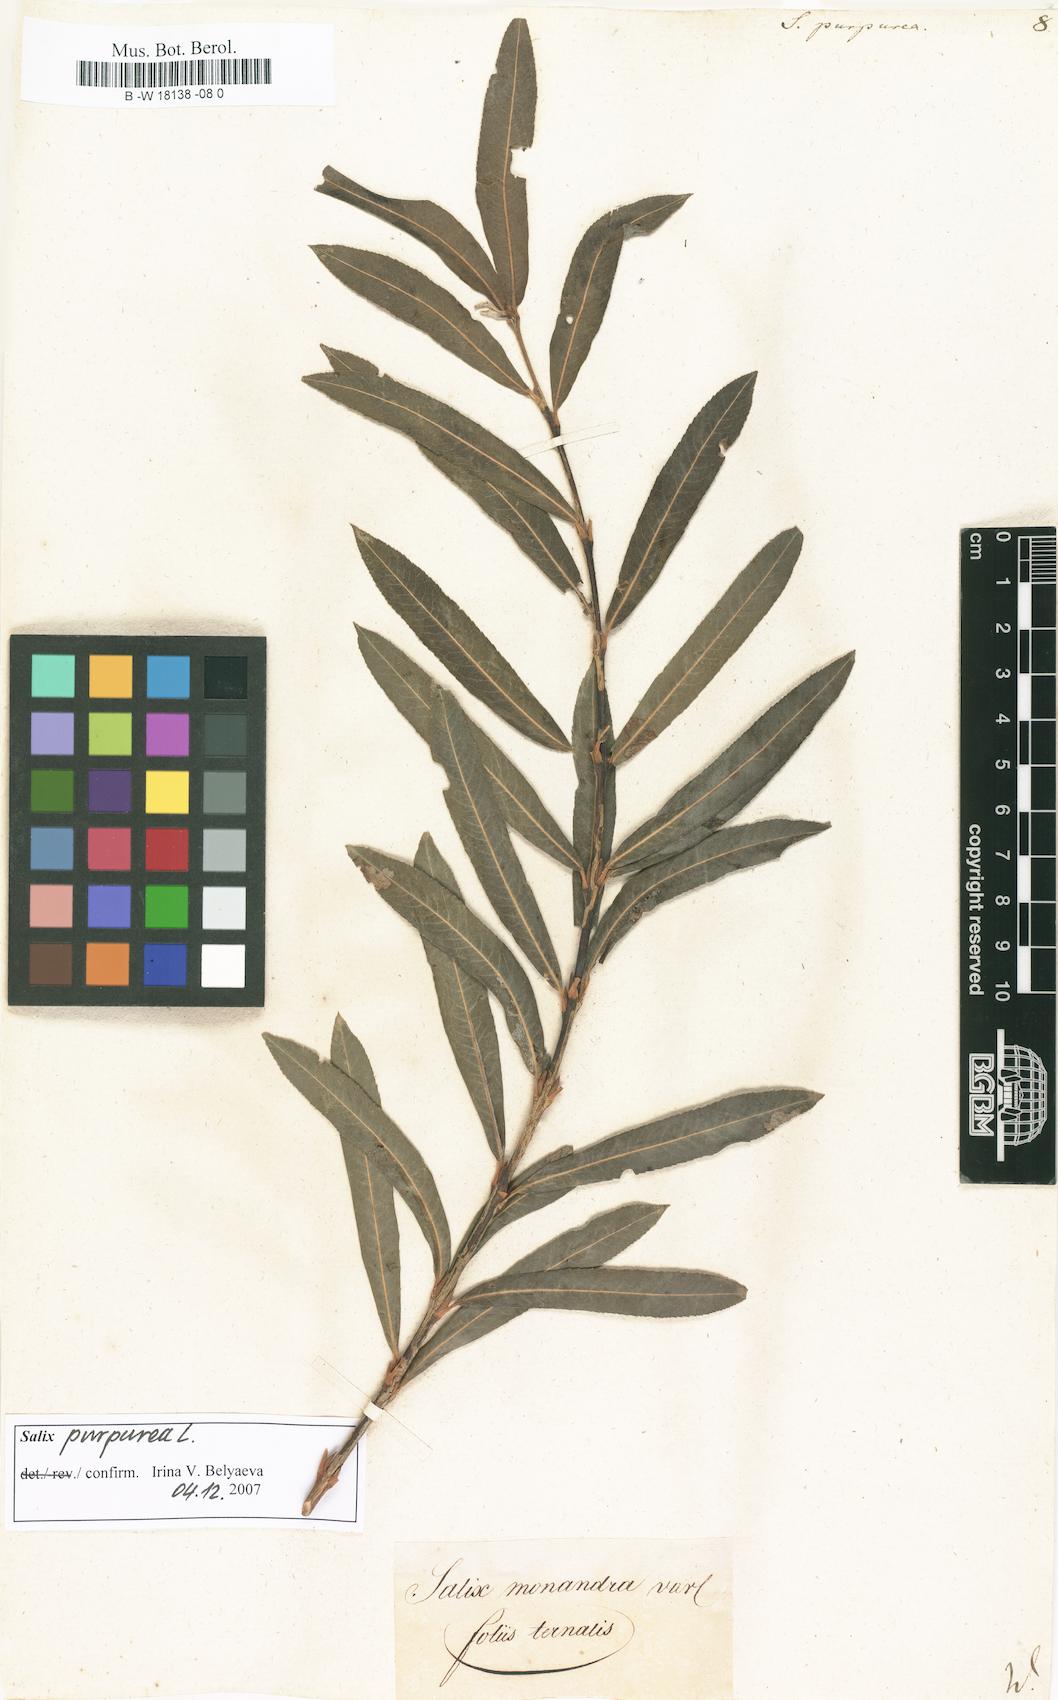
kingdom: Plantae
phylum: Tracheophyta
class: Magnoliopsida
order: Malpighiales
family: Salicaceae
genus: Salix
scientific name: Salix purpurea
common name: Purple willow
